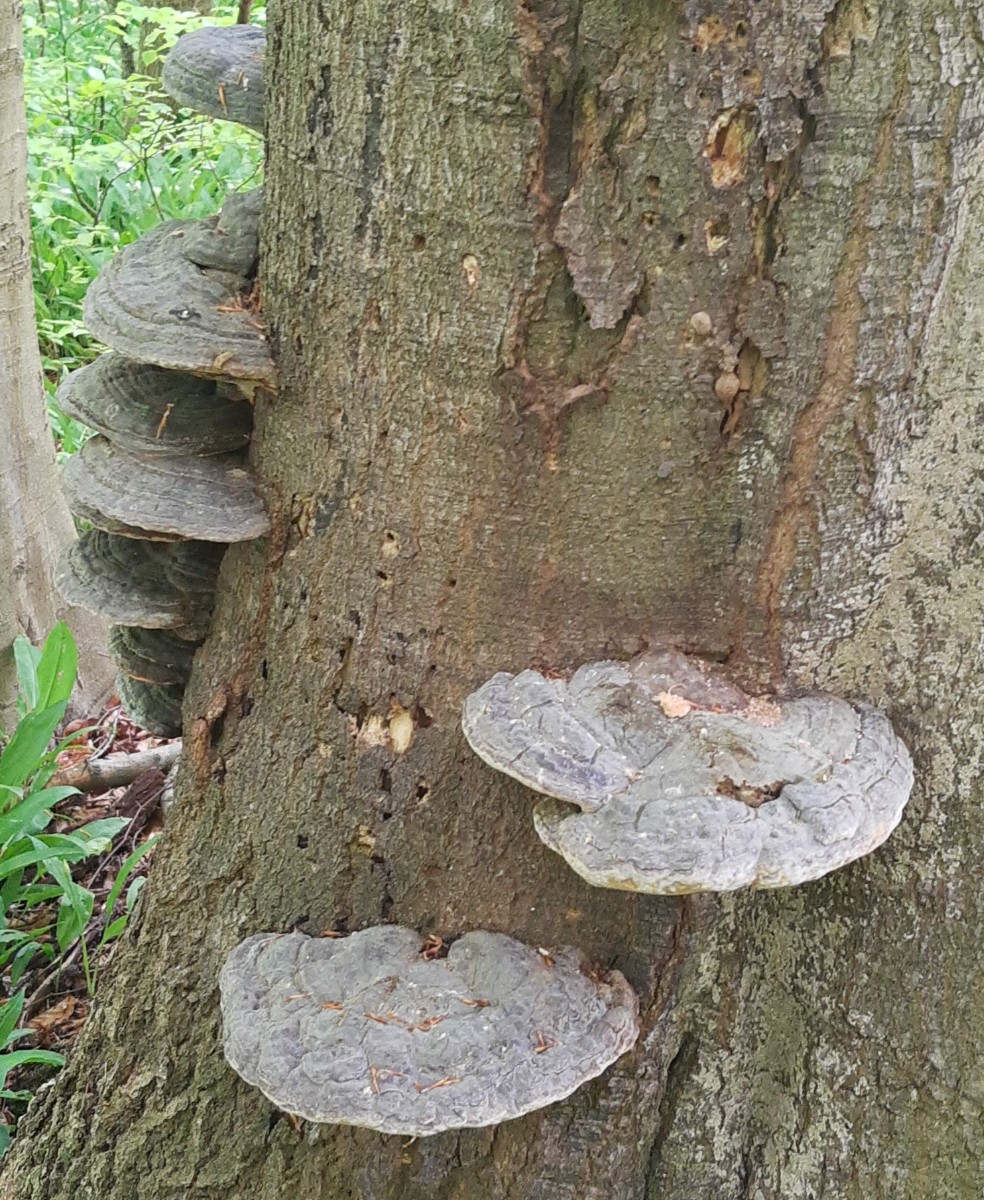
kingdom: Fungi
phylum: Basidiomycota
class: Agaricomycetes
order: Polyporales
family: Polyporaceae
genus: Ganoderma
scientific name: Ganoderma pfeifferi
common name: kobberrød lakporesvamp
